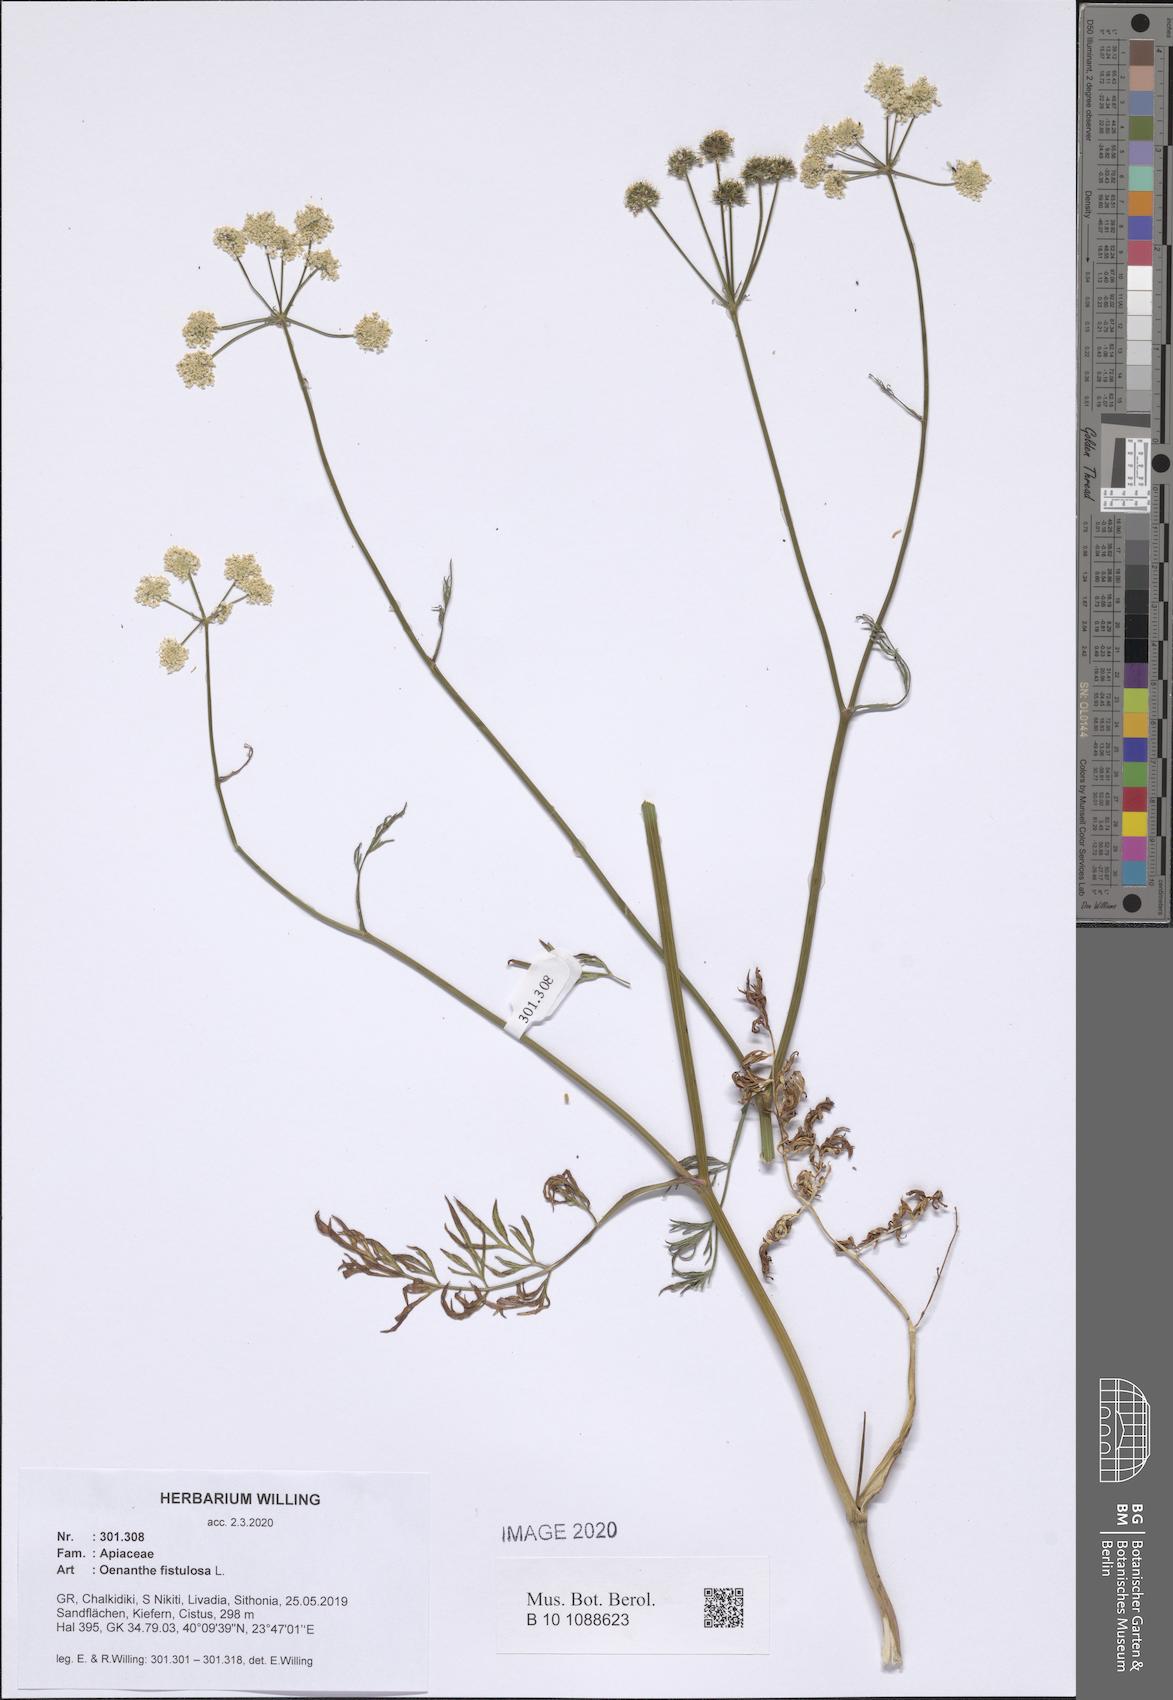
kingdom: Plantae
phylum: Tracheophyta
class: Magnoliopsida
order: Apiales
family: Apiaceae
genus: Oenanthe
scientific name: Oenanthe fistulosa
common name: Tubular water-dropwort
